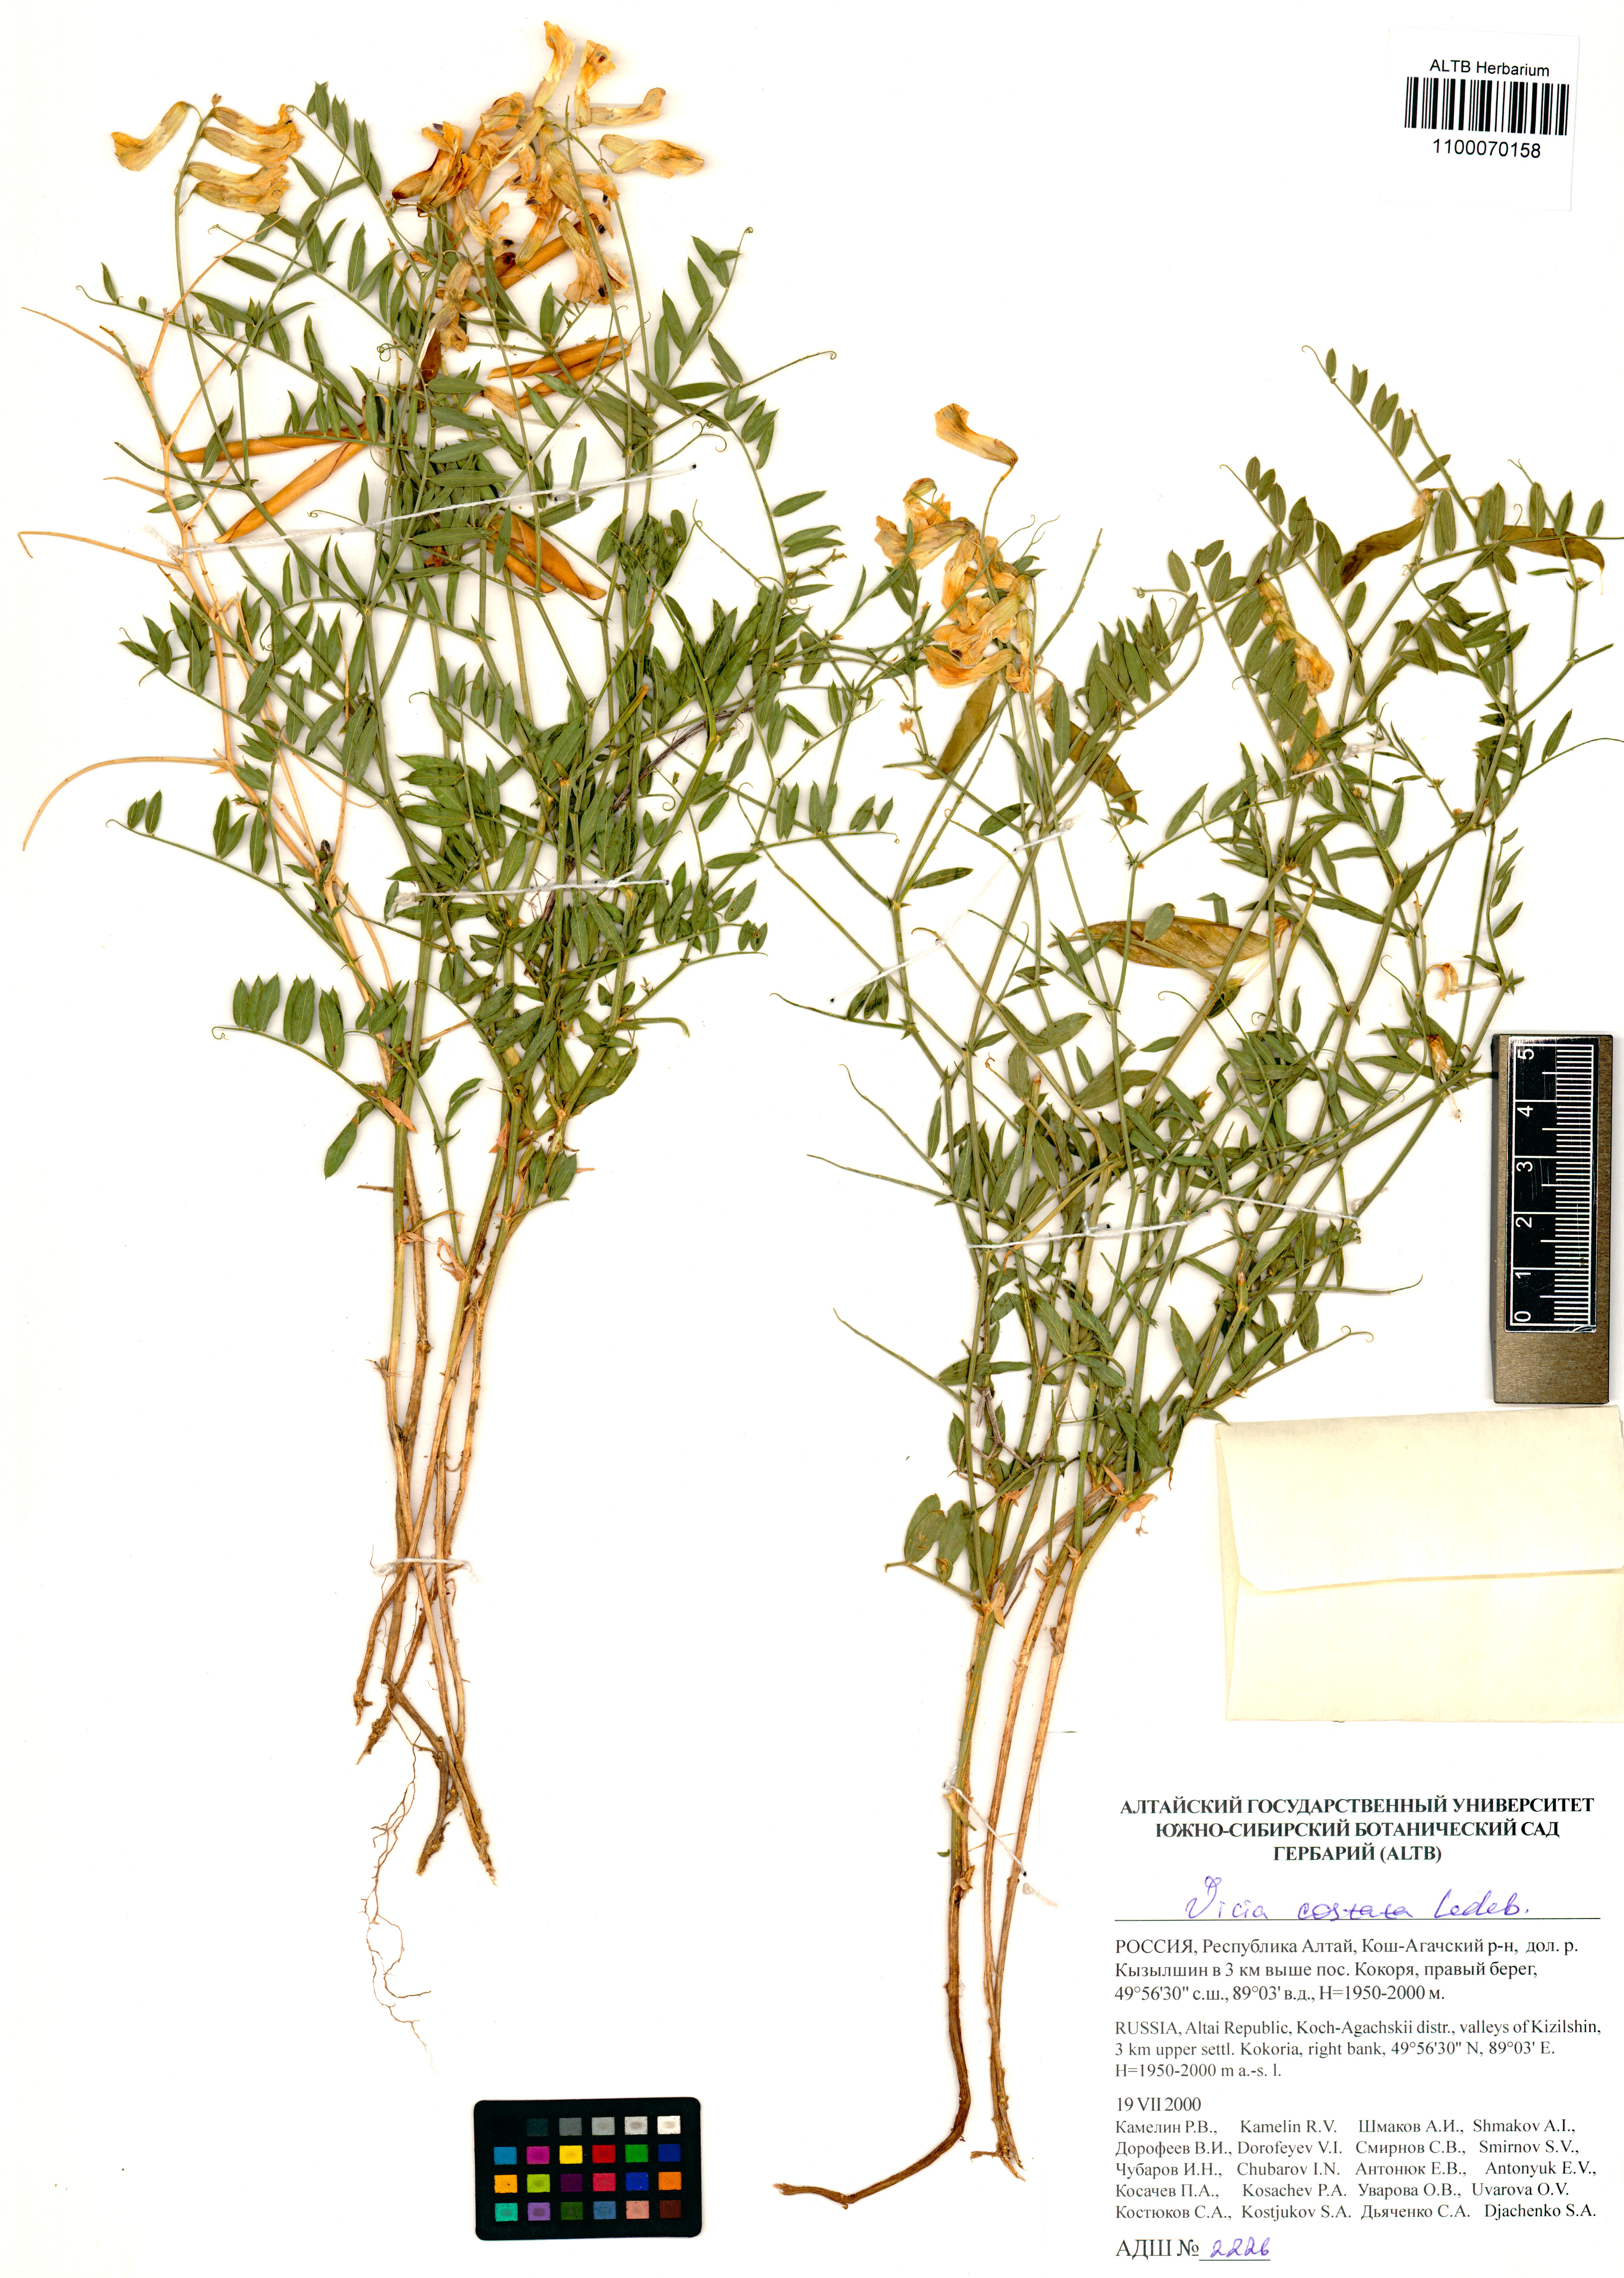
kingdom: Plantae
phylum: Tracheophyta
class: Magnoliopsida
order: Fabales
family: Fabaceae
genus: Vicia
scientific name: Vicia costata
